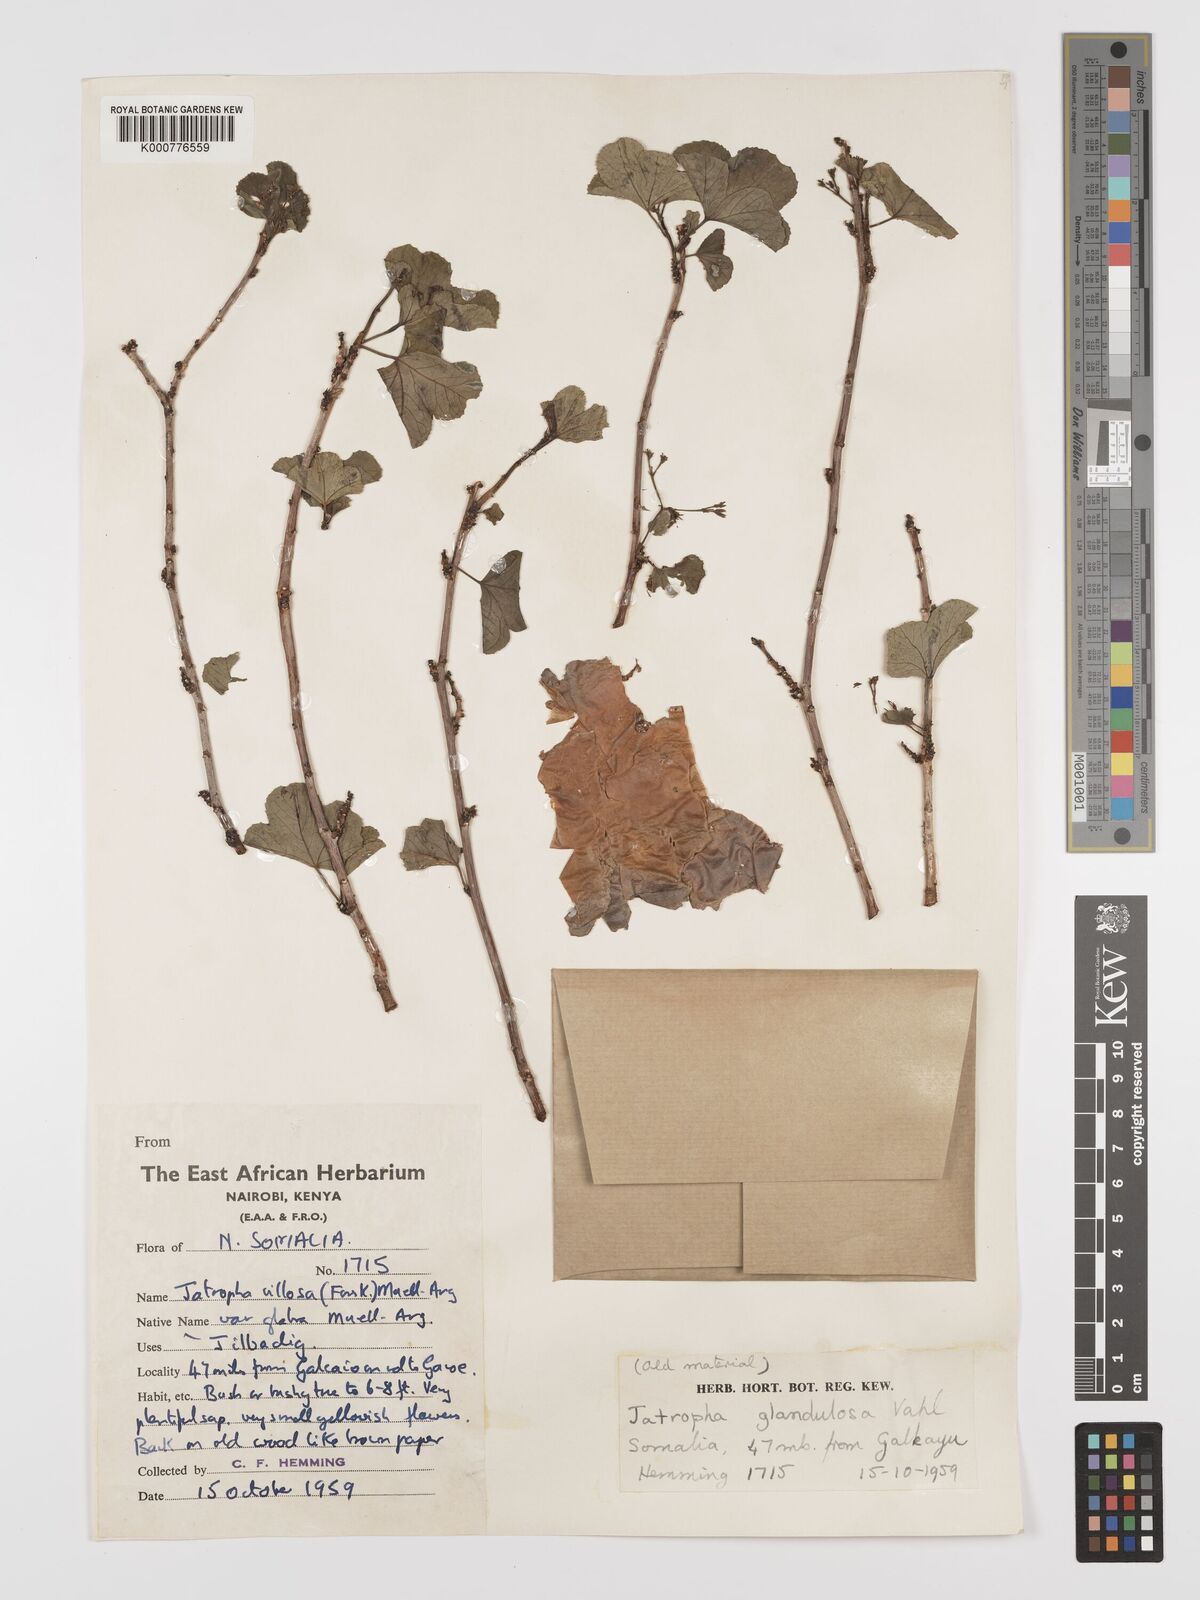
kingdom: Plantae
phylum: Tracheophyta
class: Magnoliopsida
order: Malpighiales
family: Euphorbiaceae
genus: Jatropha
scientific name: Jatropha pelargoniifolia
